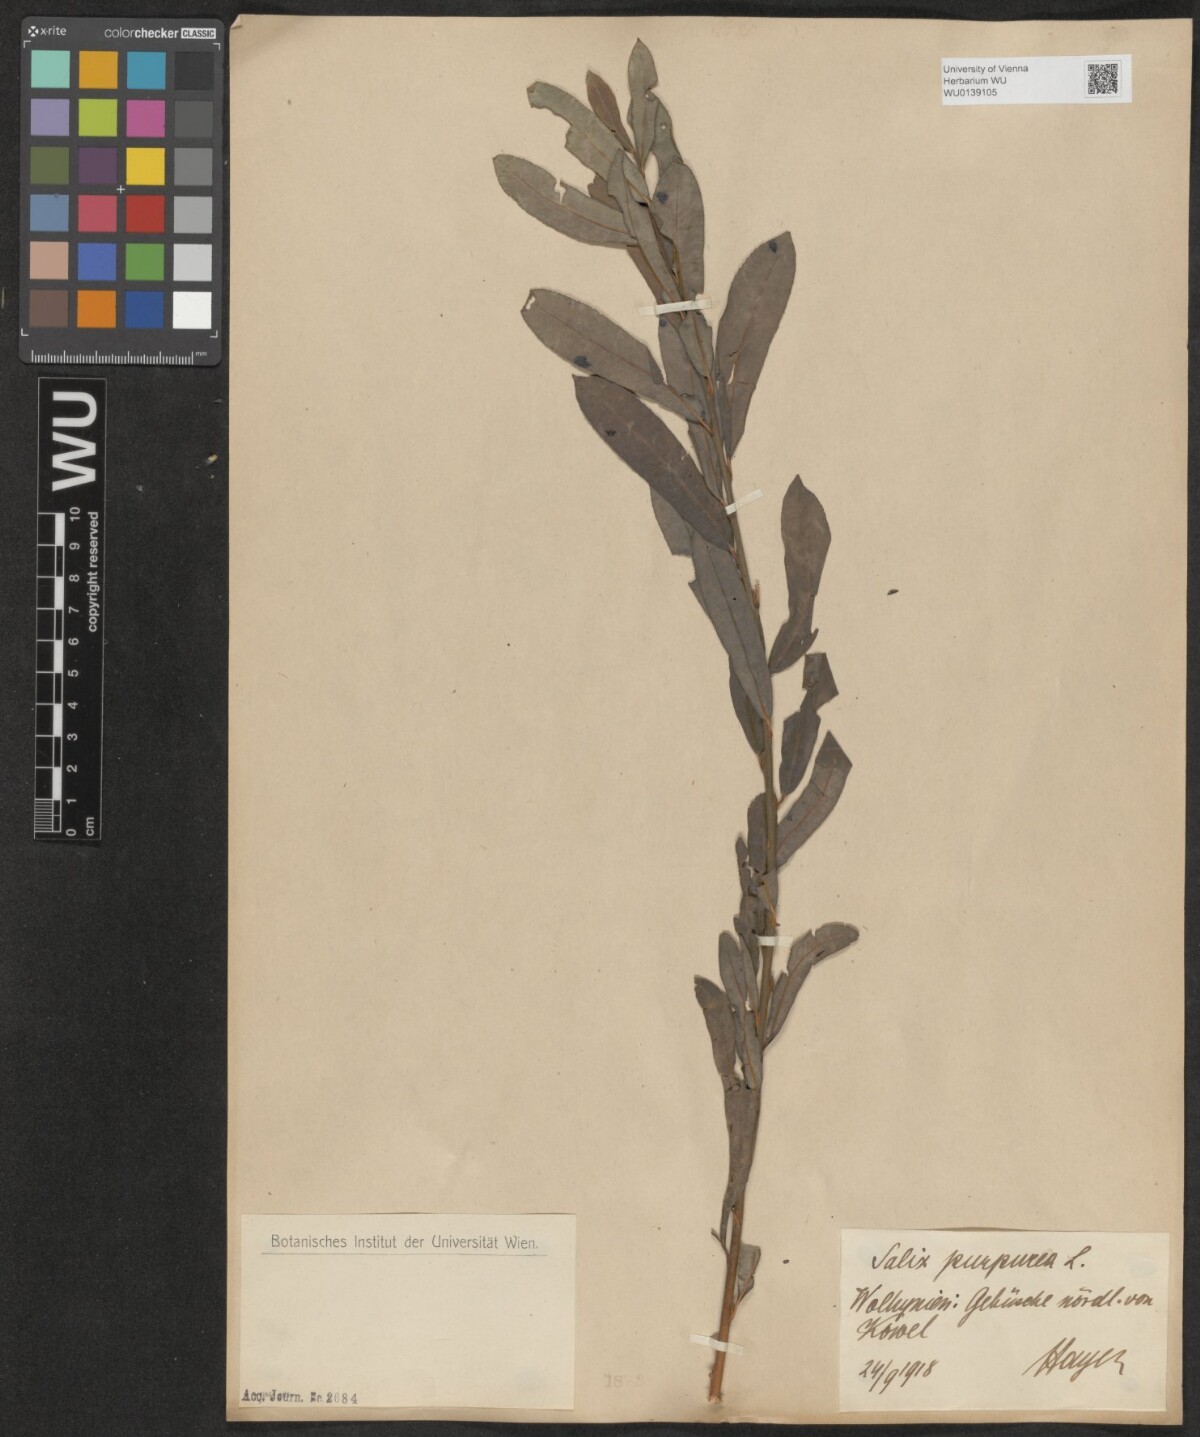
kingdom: Plantae
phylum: Tracheophyta
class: Magnoliopsida
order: Malpighiales
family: Salicaceae
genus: Salix
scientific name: Salix purpurea
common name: Purple willow
